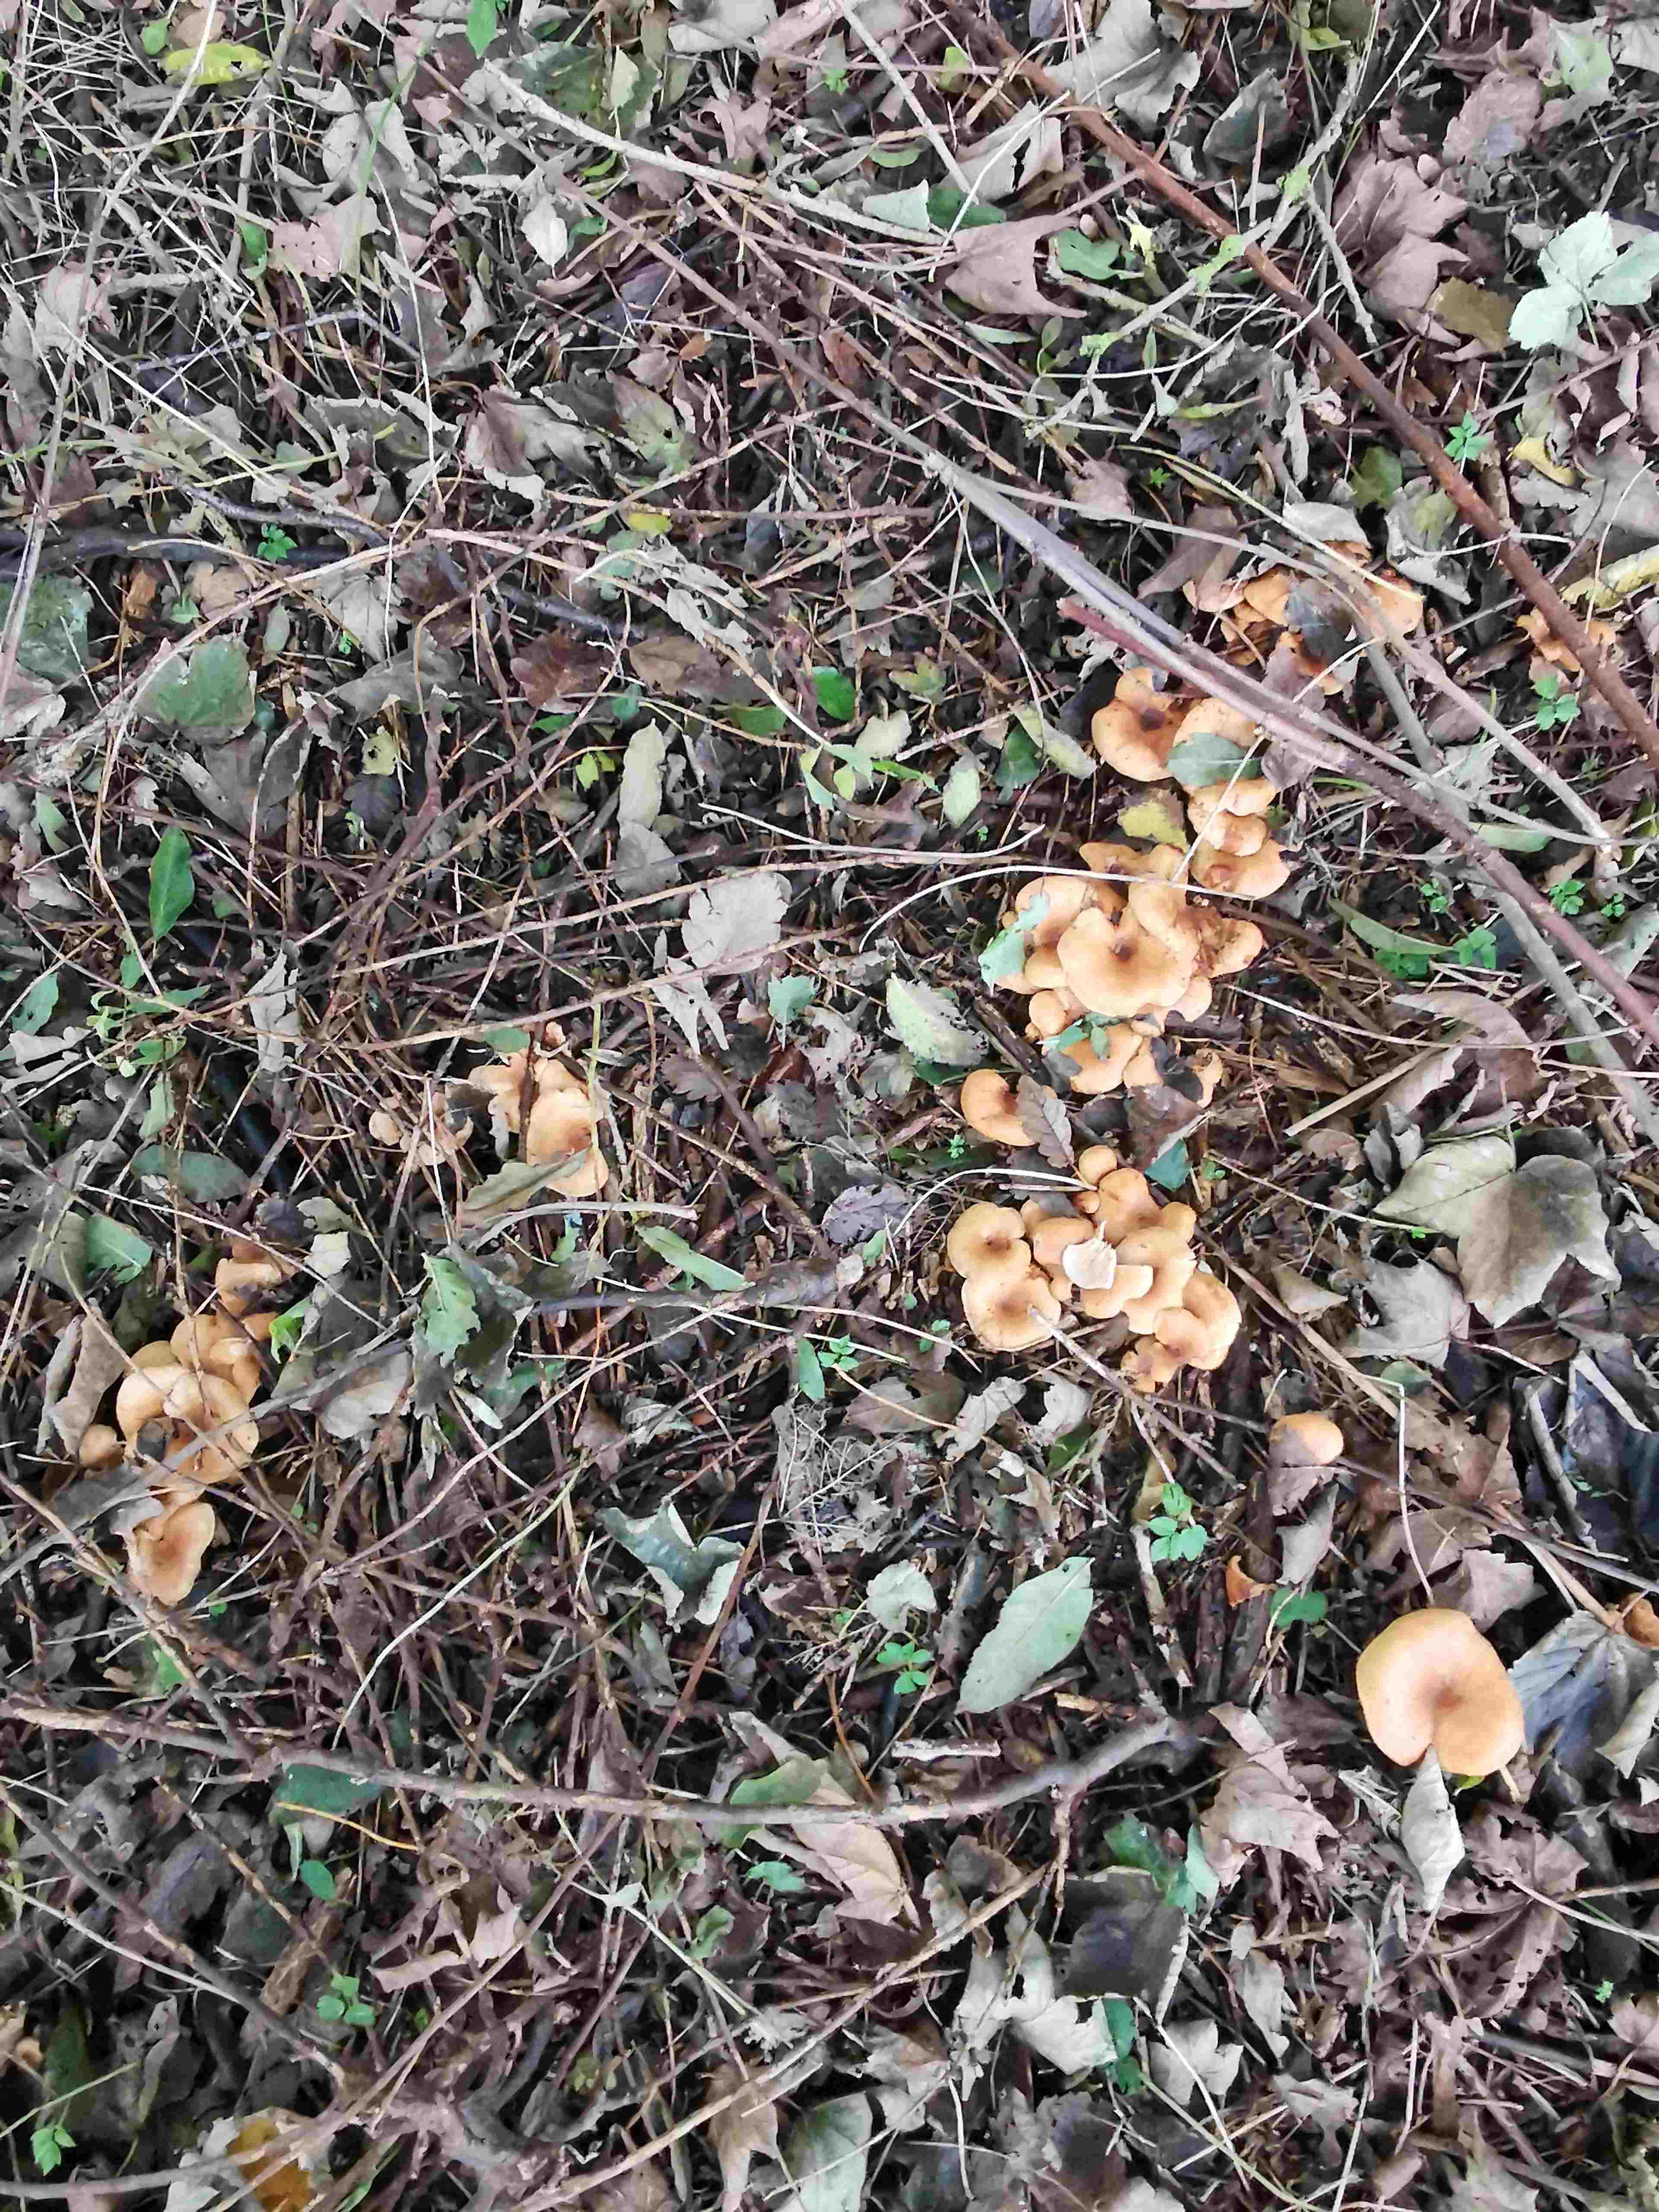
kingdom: Fungi
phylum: Basidiomycota
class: Agaricomycetes
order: Agaricales
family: Tricholomataceae
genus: Paralepista
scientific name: Paralepista flaccida
